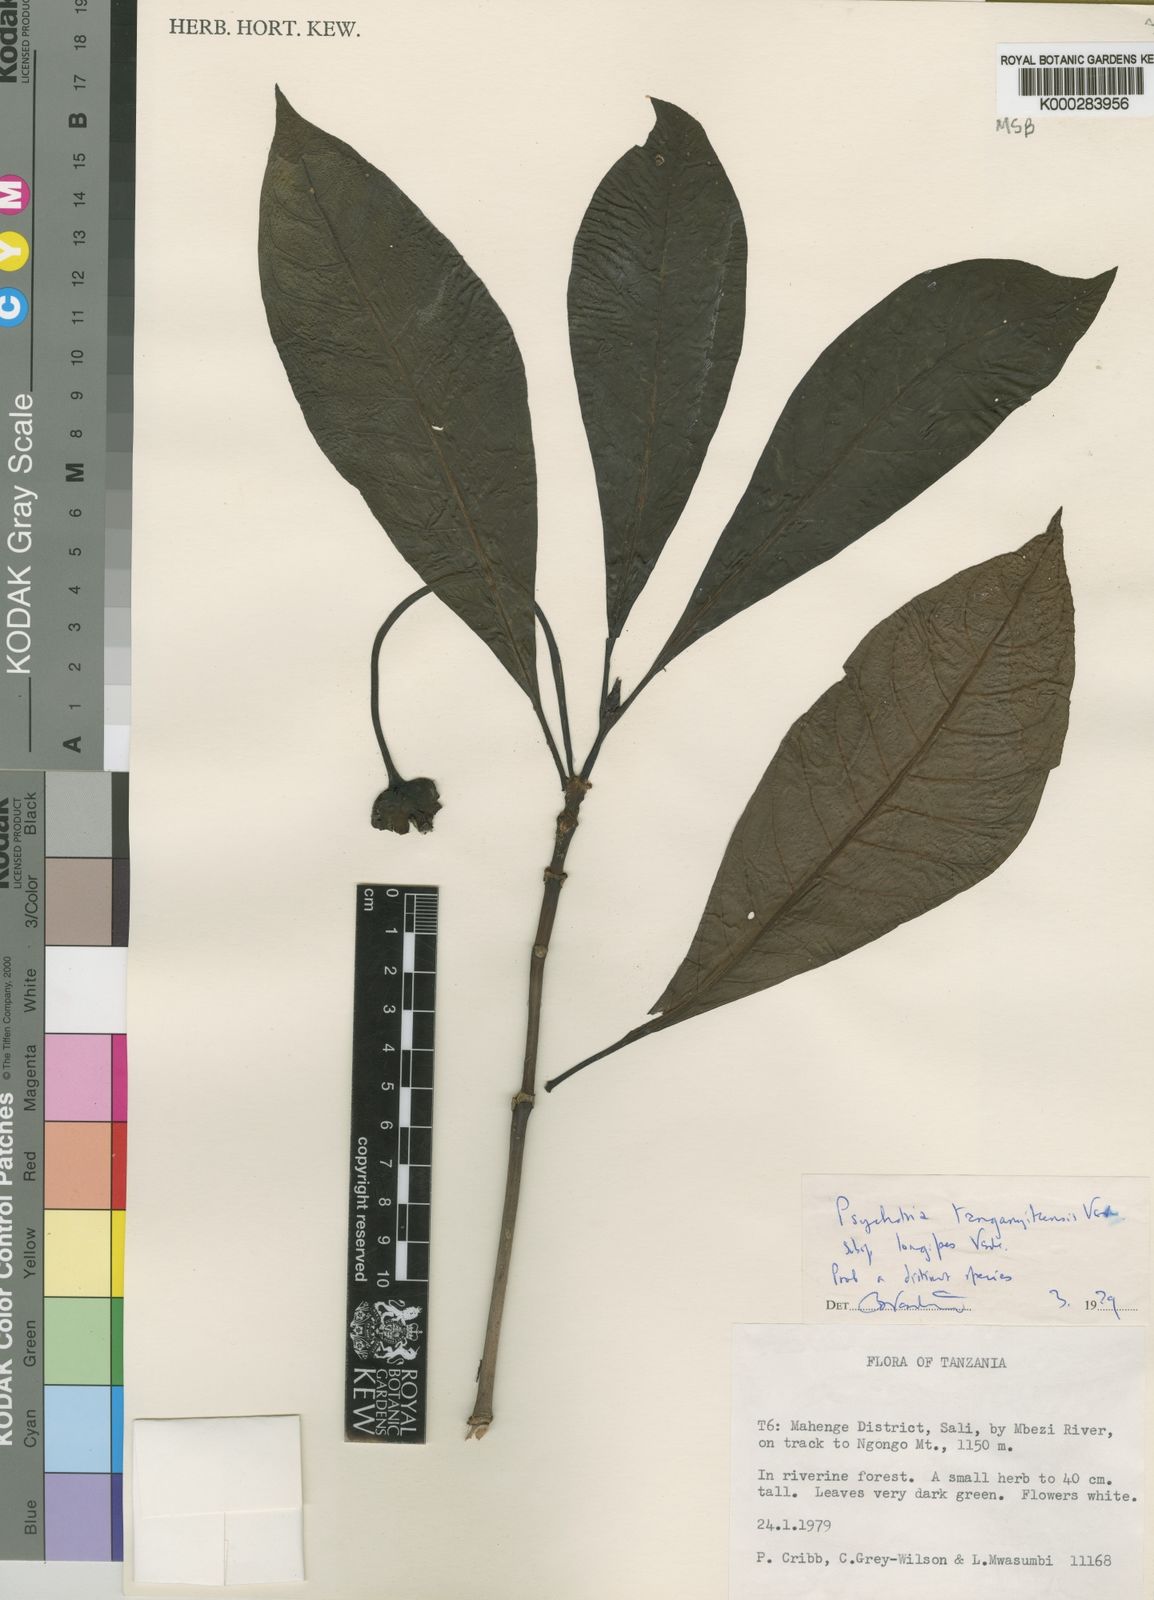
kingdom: Plantae
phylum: Tracheophyta
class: Magnoliopsida
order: Gentianales
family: Rubiaceae
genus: Psychotria
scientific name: Psychotria tanganyicensis
